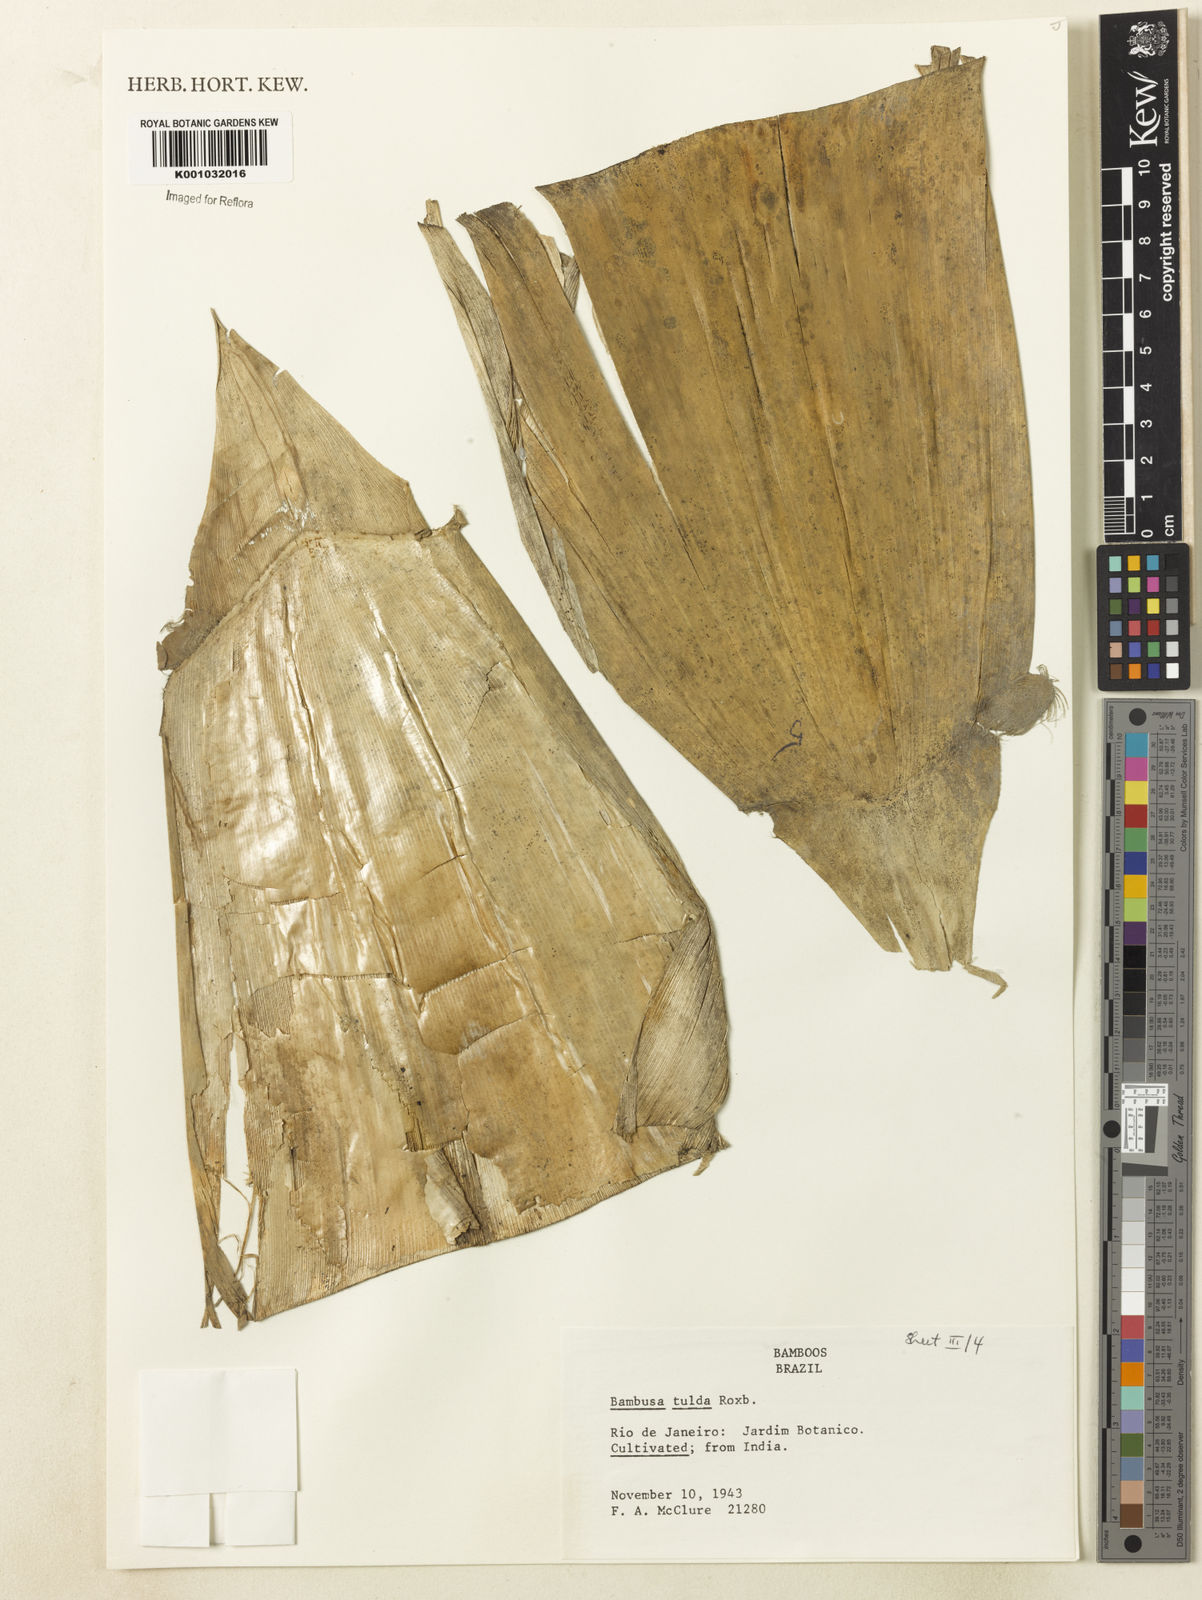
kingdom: Plantae
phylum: Tracheophyta
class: Liliopsida
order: Poales
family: Poaceae
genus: Bambusa
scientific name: Bambusa tulda
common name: Bengal bamboo
